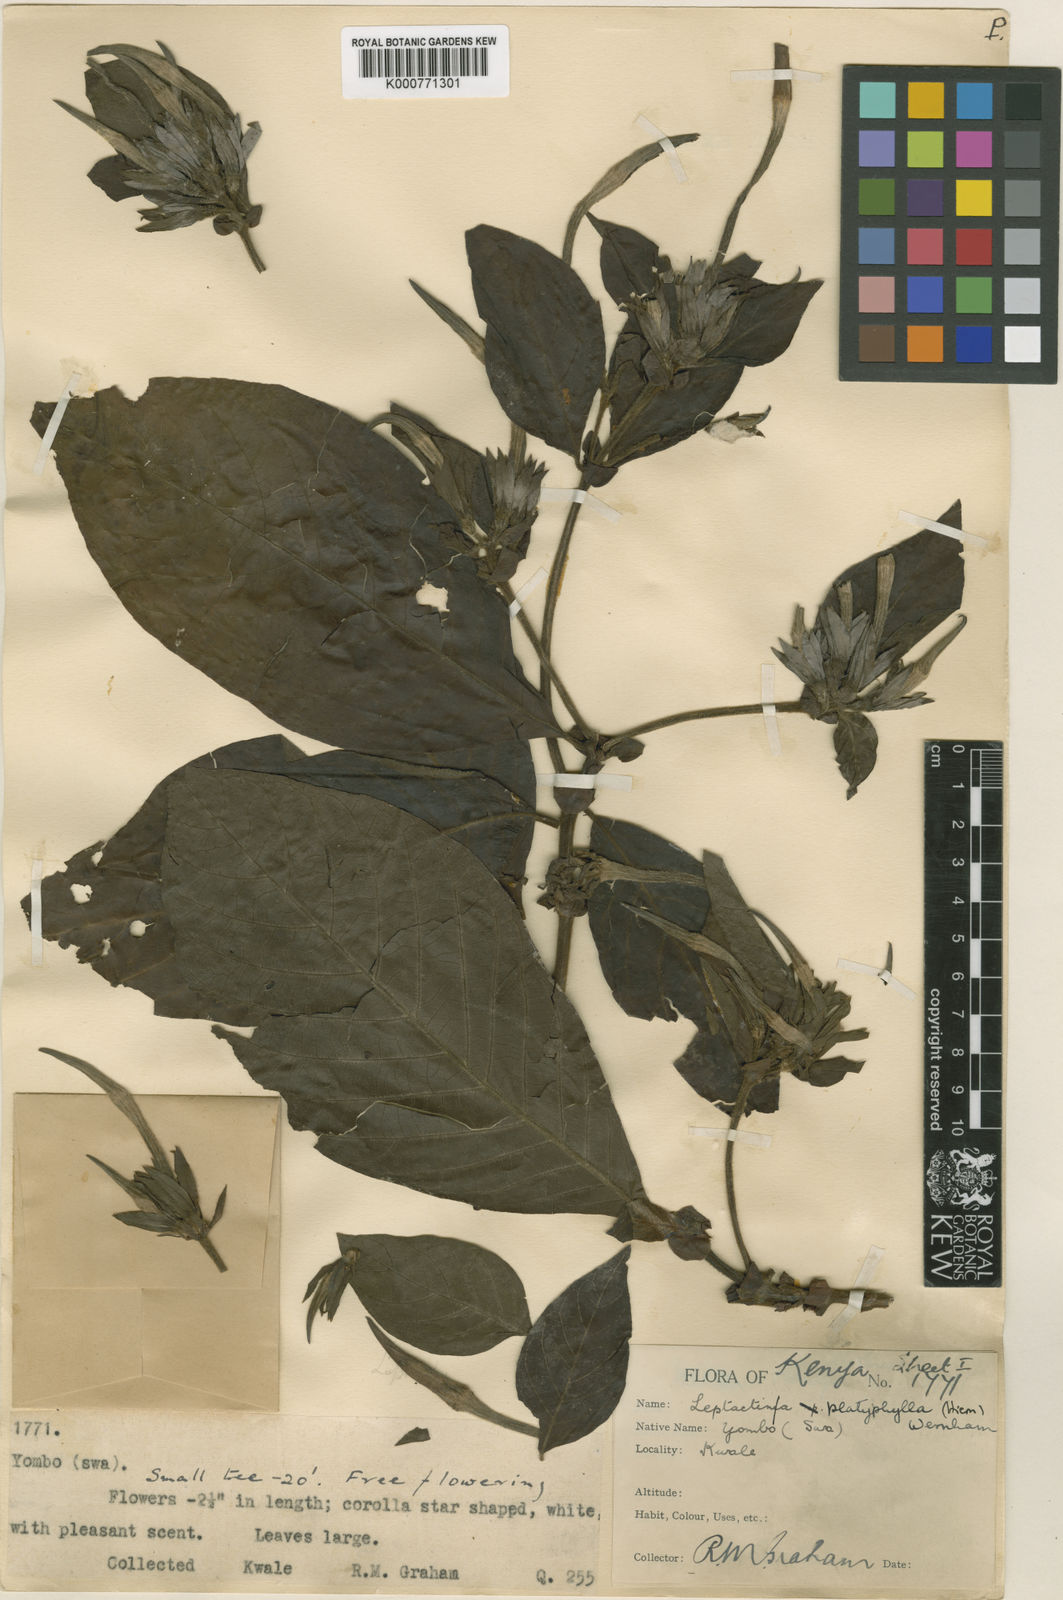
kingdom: Plantae
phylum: Tracheophyta
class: Magnoliopsida
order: Gentianales
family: Rubiaceae
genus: Leptactina
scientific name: Leptactina platyphylla
